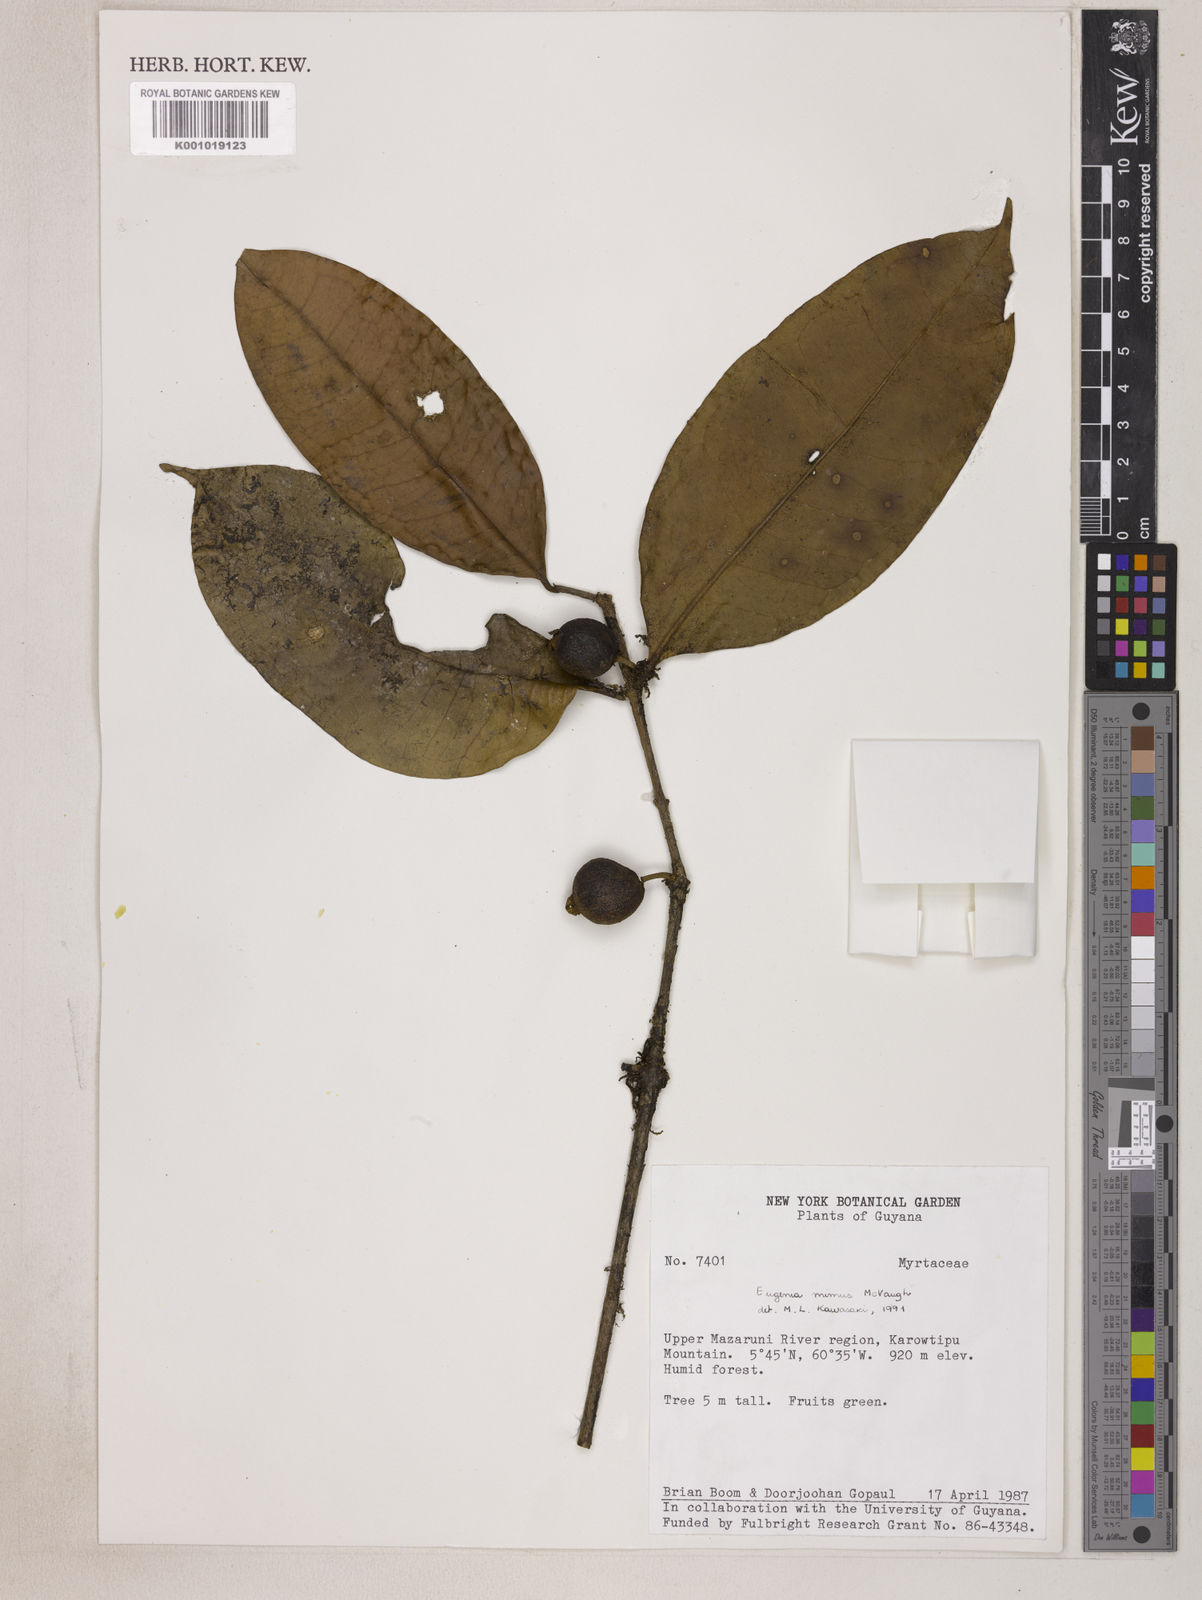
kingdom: Plantae
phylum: Tracheophyta
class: Magnoliopsida
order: Myrtales
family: Myrtaceae
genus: Eugenia
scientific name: Eugenia mimus
